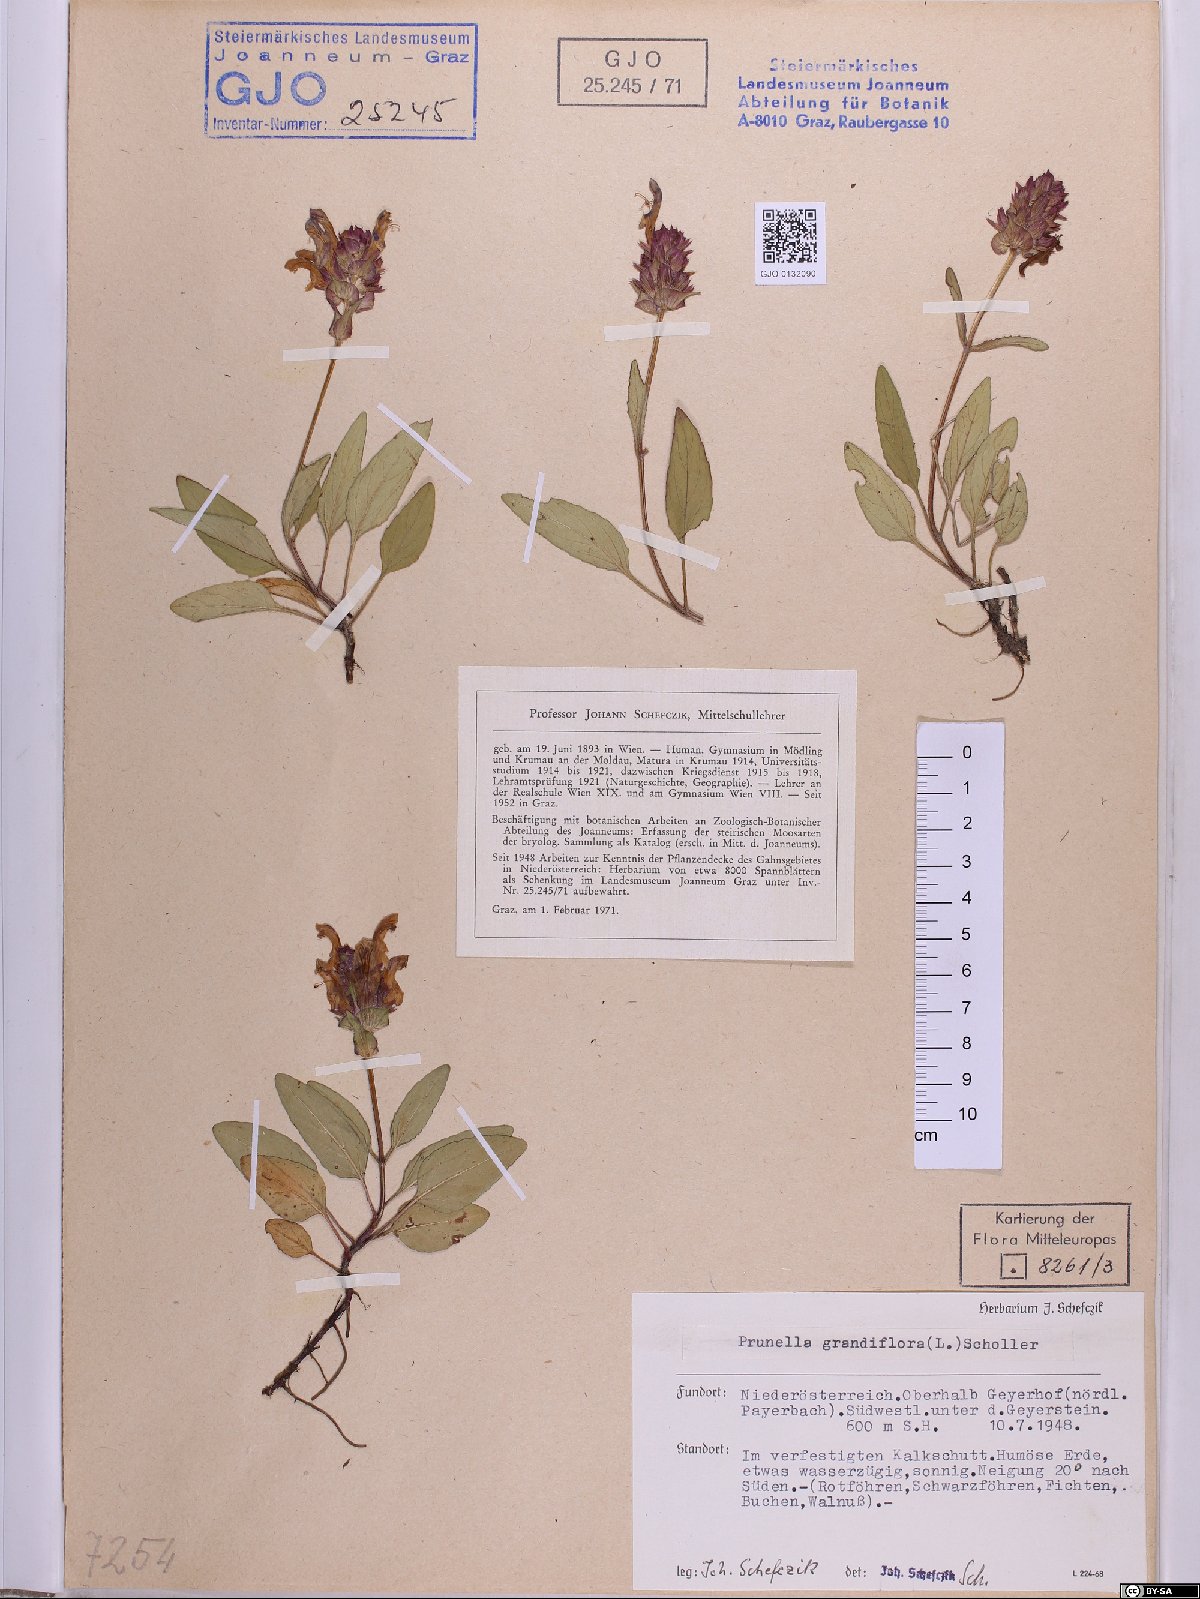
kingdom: Plantae
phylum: Tracheophyta
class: Magnoliopsida
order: Lamiales
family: Lamiaceae
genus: Prunella
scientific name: Prunella grandiflora
